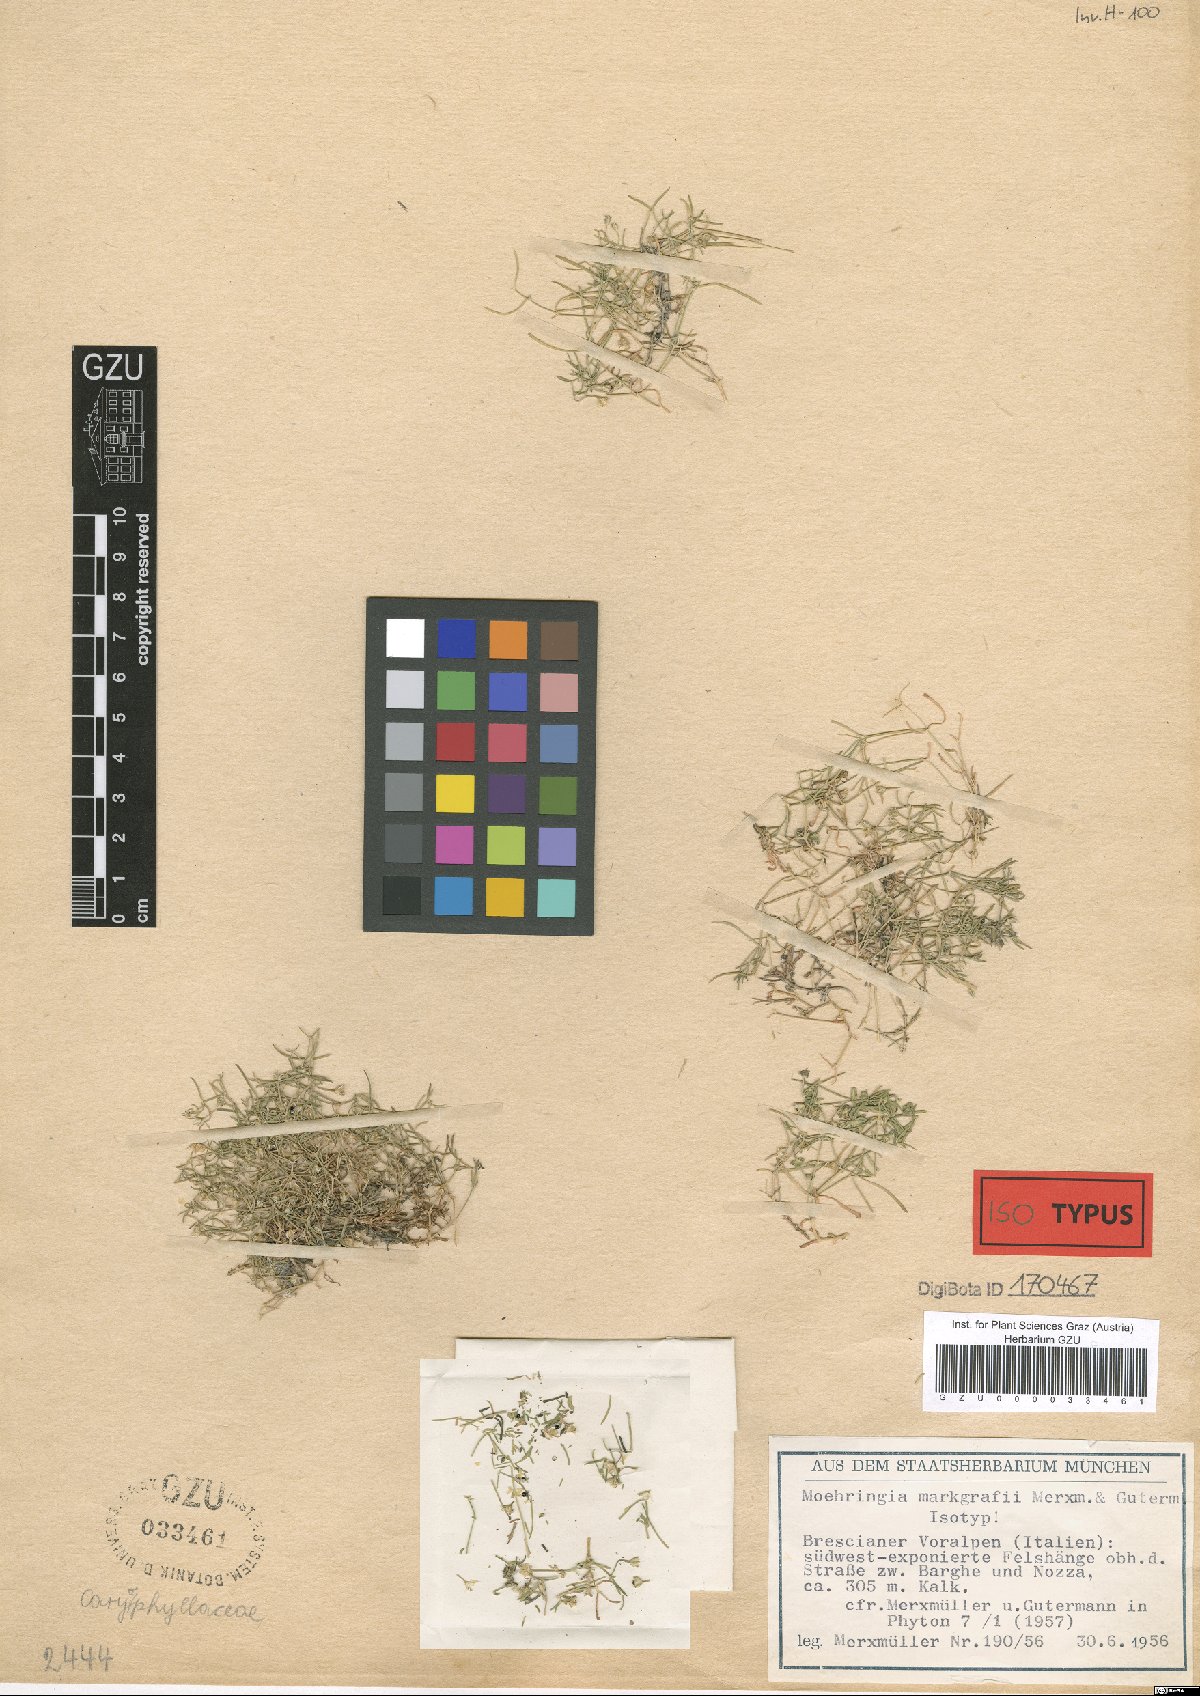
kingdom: Plantae
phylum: Tracheophyta
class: Magnoliopsida
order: Caryophyllales
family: Caryophyllaceae
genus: Moehringia
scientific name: Moehringia markgrafii
